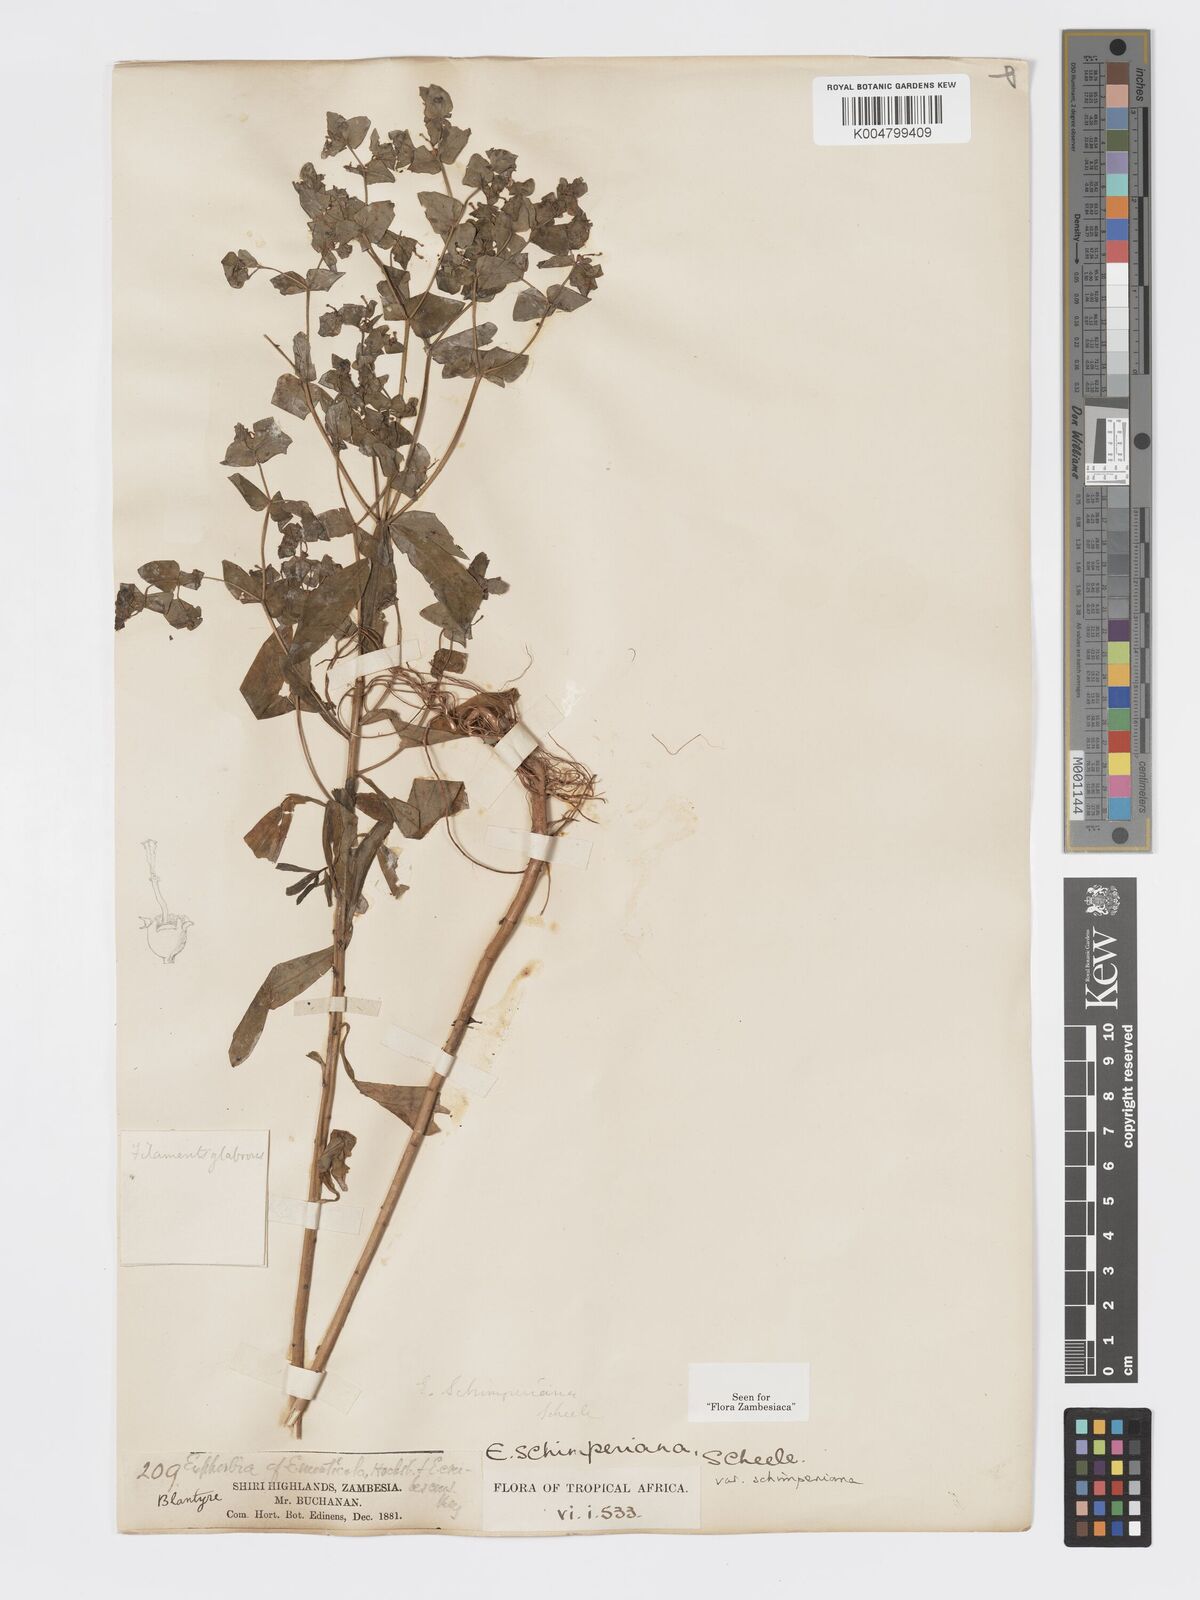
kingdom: Plantae
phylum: Tracheophyta
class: Magnoliopsida
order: Malpighiales
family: Euphorbiaceae
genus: Euphorbia
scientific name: Euphorbia schimperiana
